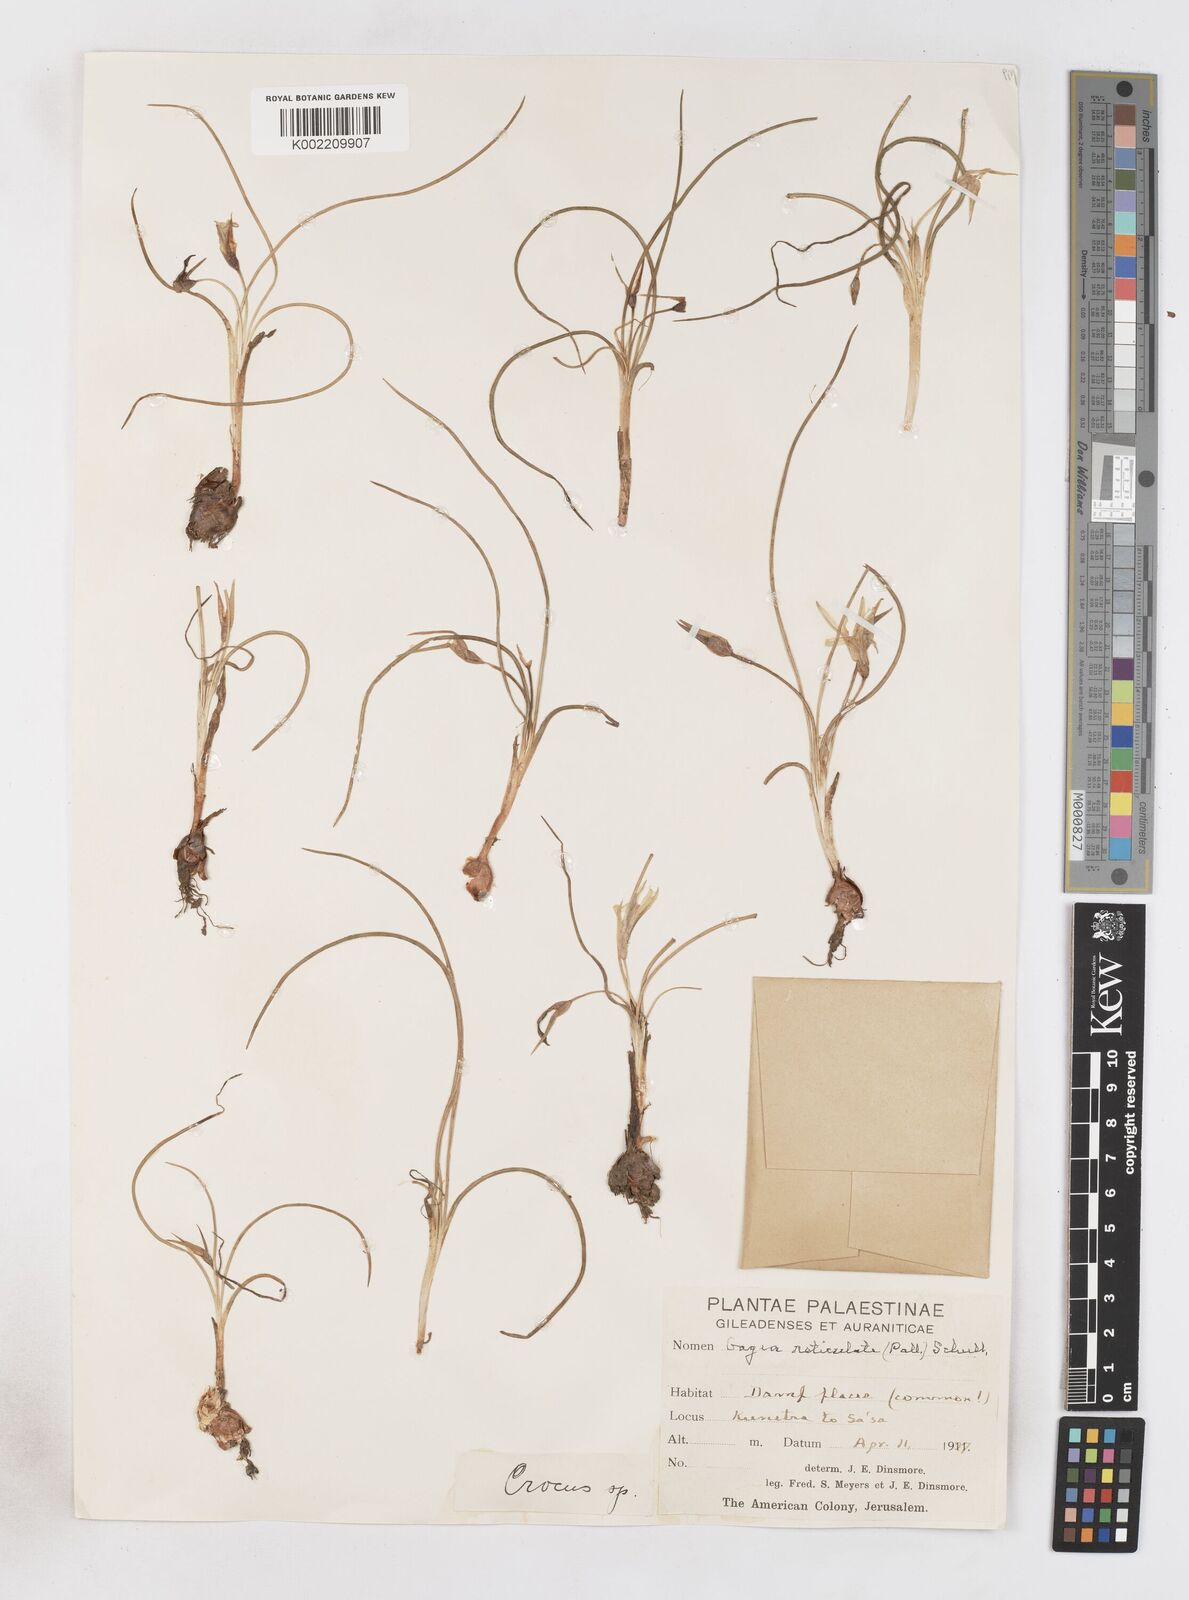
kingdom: Plantae
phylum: Tracheophyta
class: Liliopsida
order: Asparagales
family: Iridaceae
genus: Romulea
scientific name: Romulea bulbocodium
